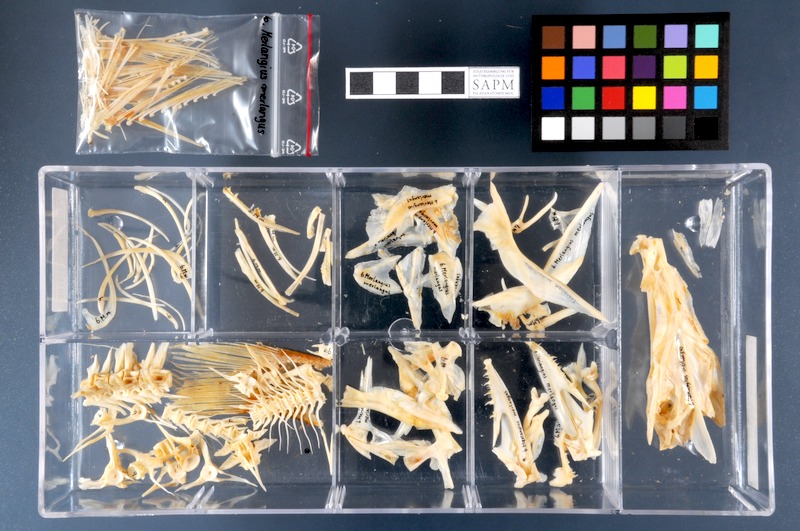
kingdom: Animalia
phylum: Chordata
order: Gadiformes
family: Gadidae
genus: Merlangius
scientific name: Merlangius merlangus
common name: Whiting
